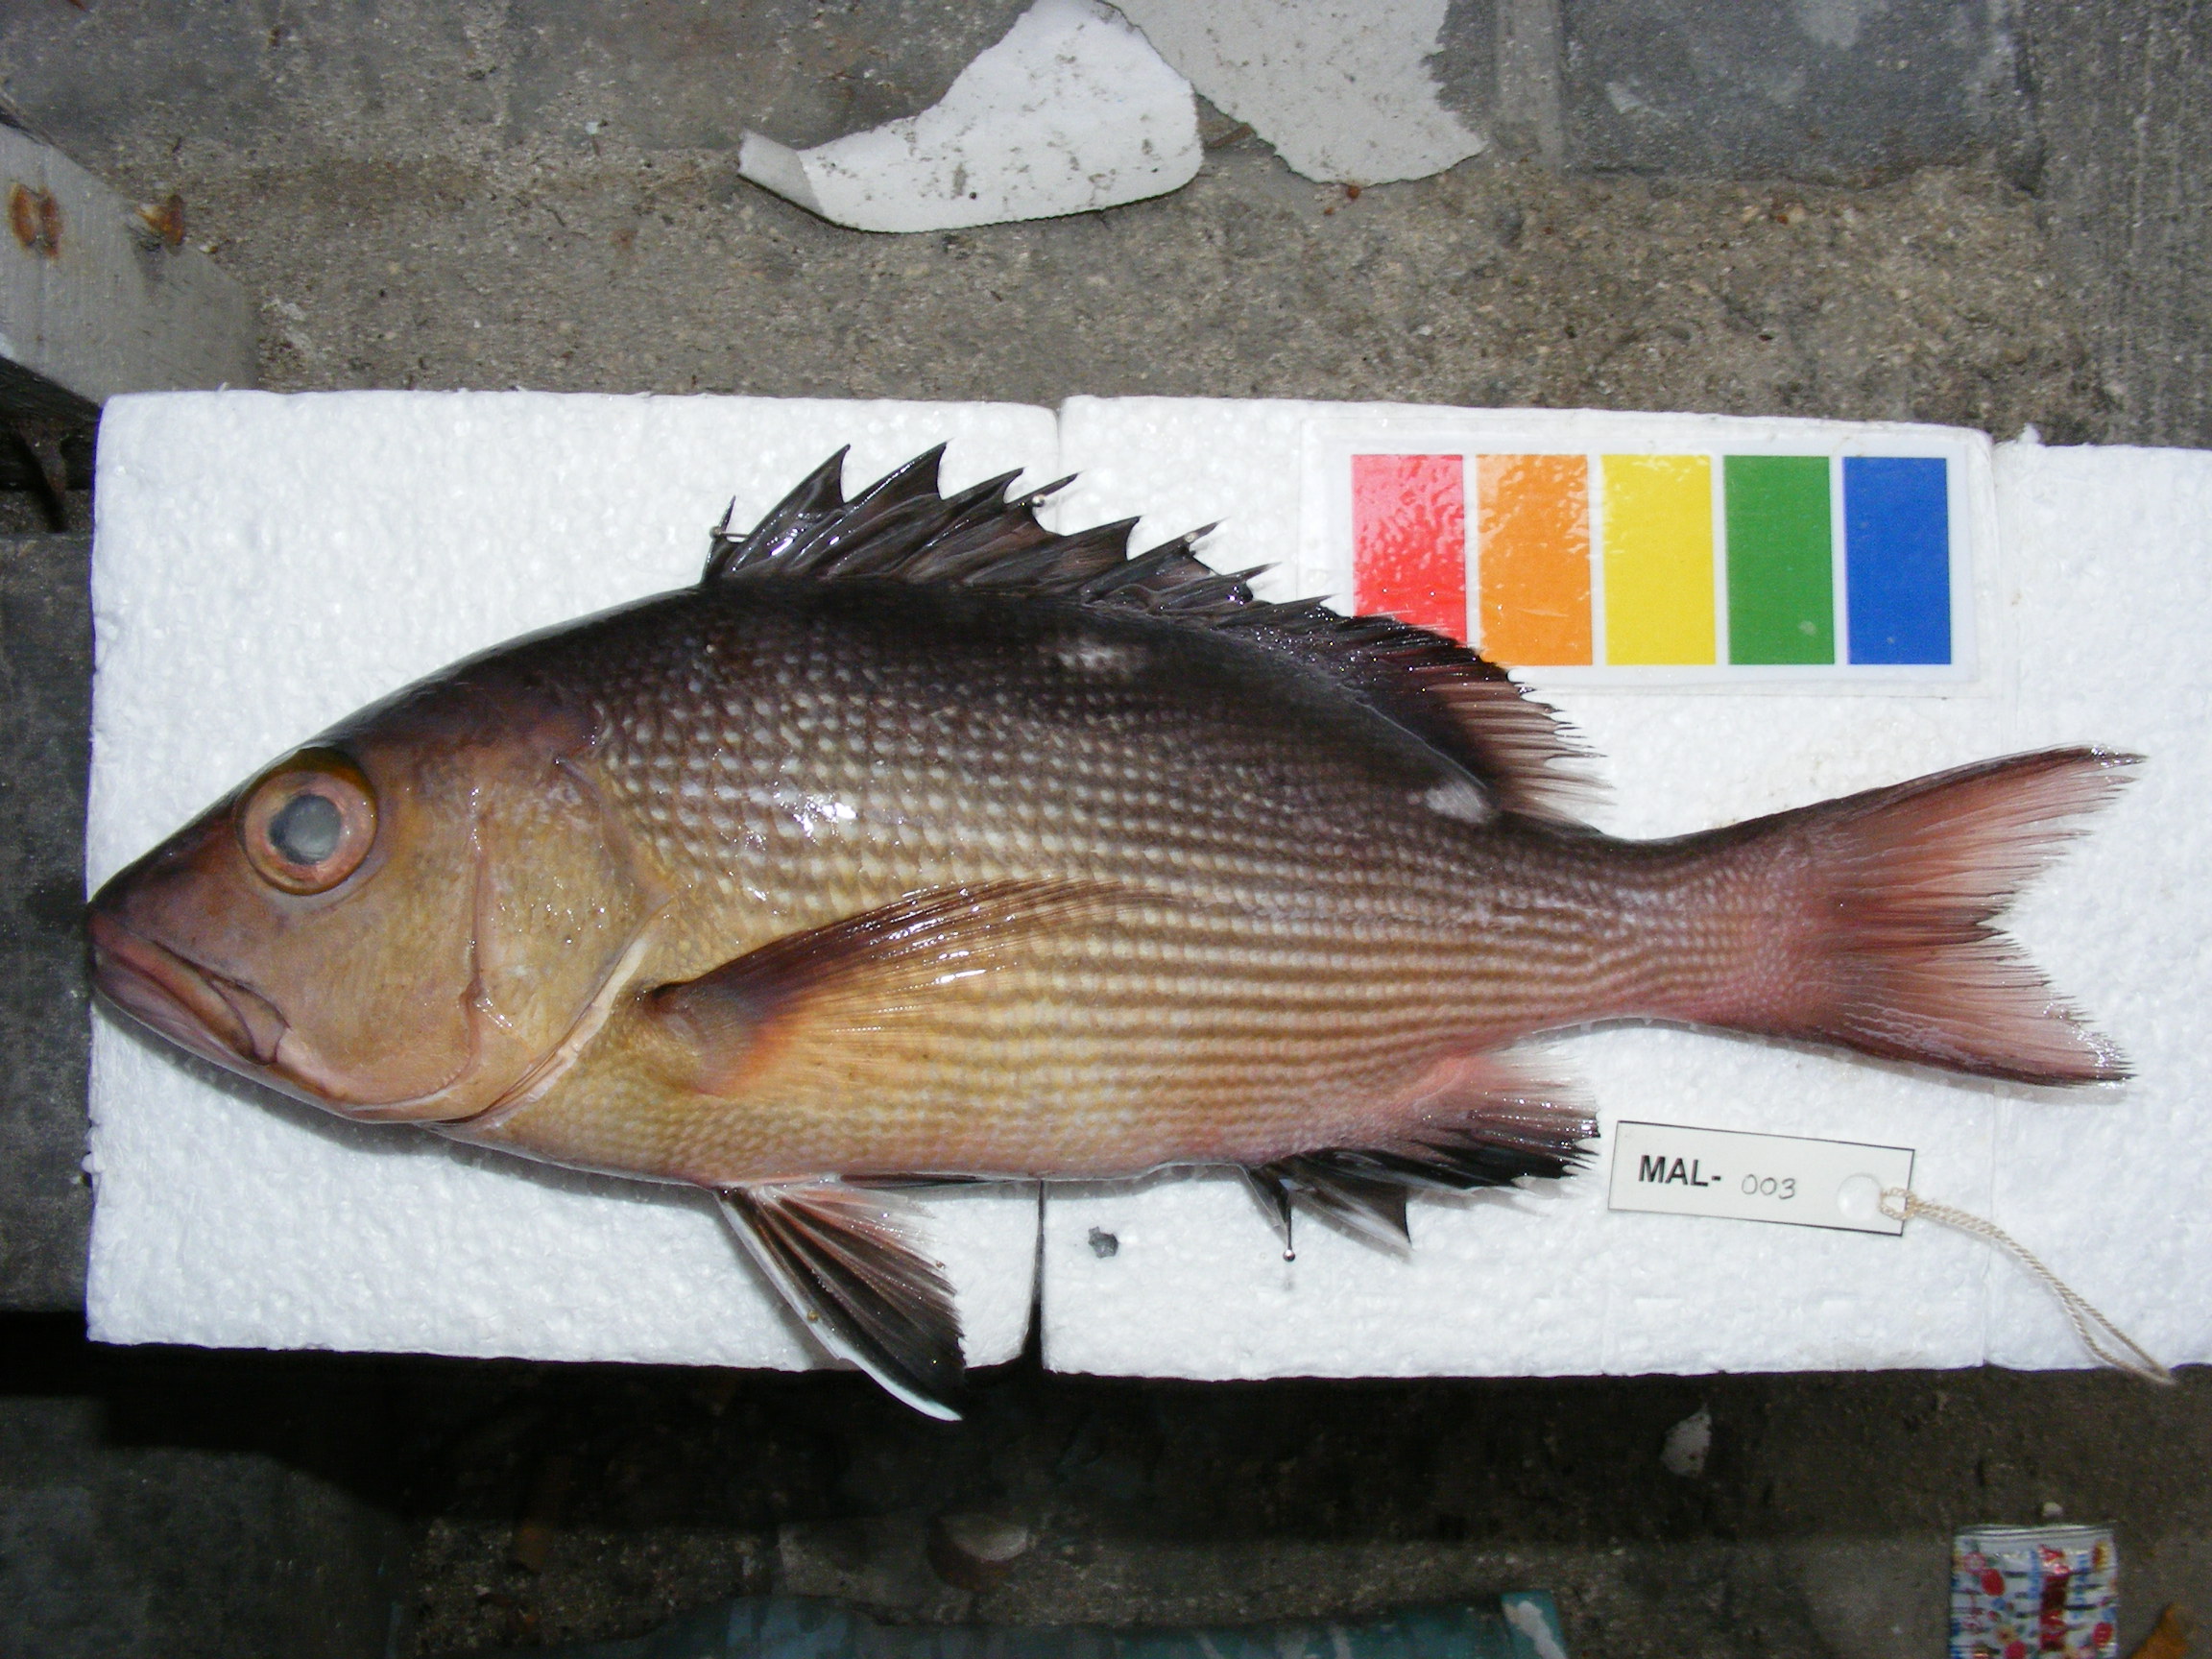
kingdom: Animalia
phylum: Chordata
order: Perciformes
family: Lutjanidae
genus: Lutjanus
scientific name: Lutjanus bohar
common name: Red bass
